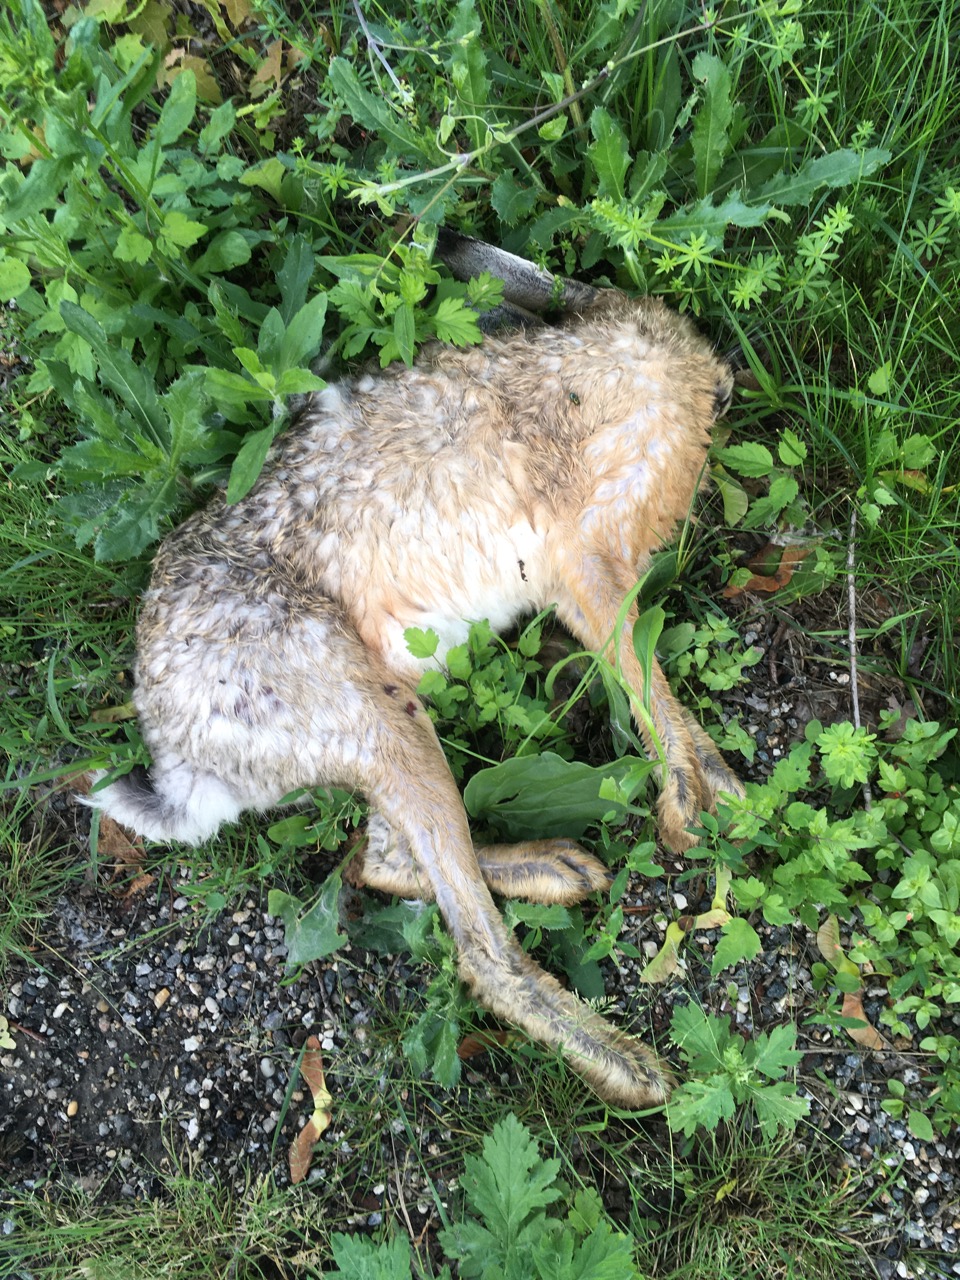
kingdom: Animalia
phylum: Chordata
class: Mammalia
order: Lagomorpha
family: Leporidae
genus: Lepus
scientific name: Lepus europaeus
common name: European hare
